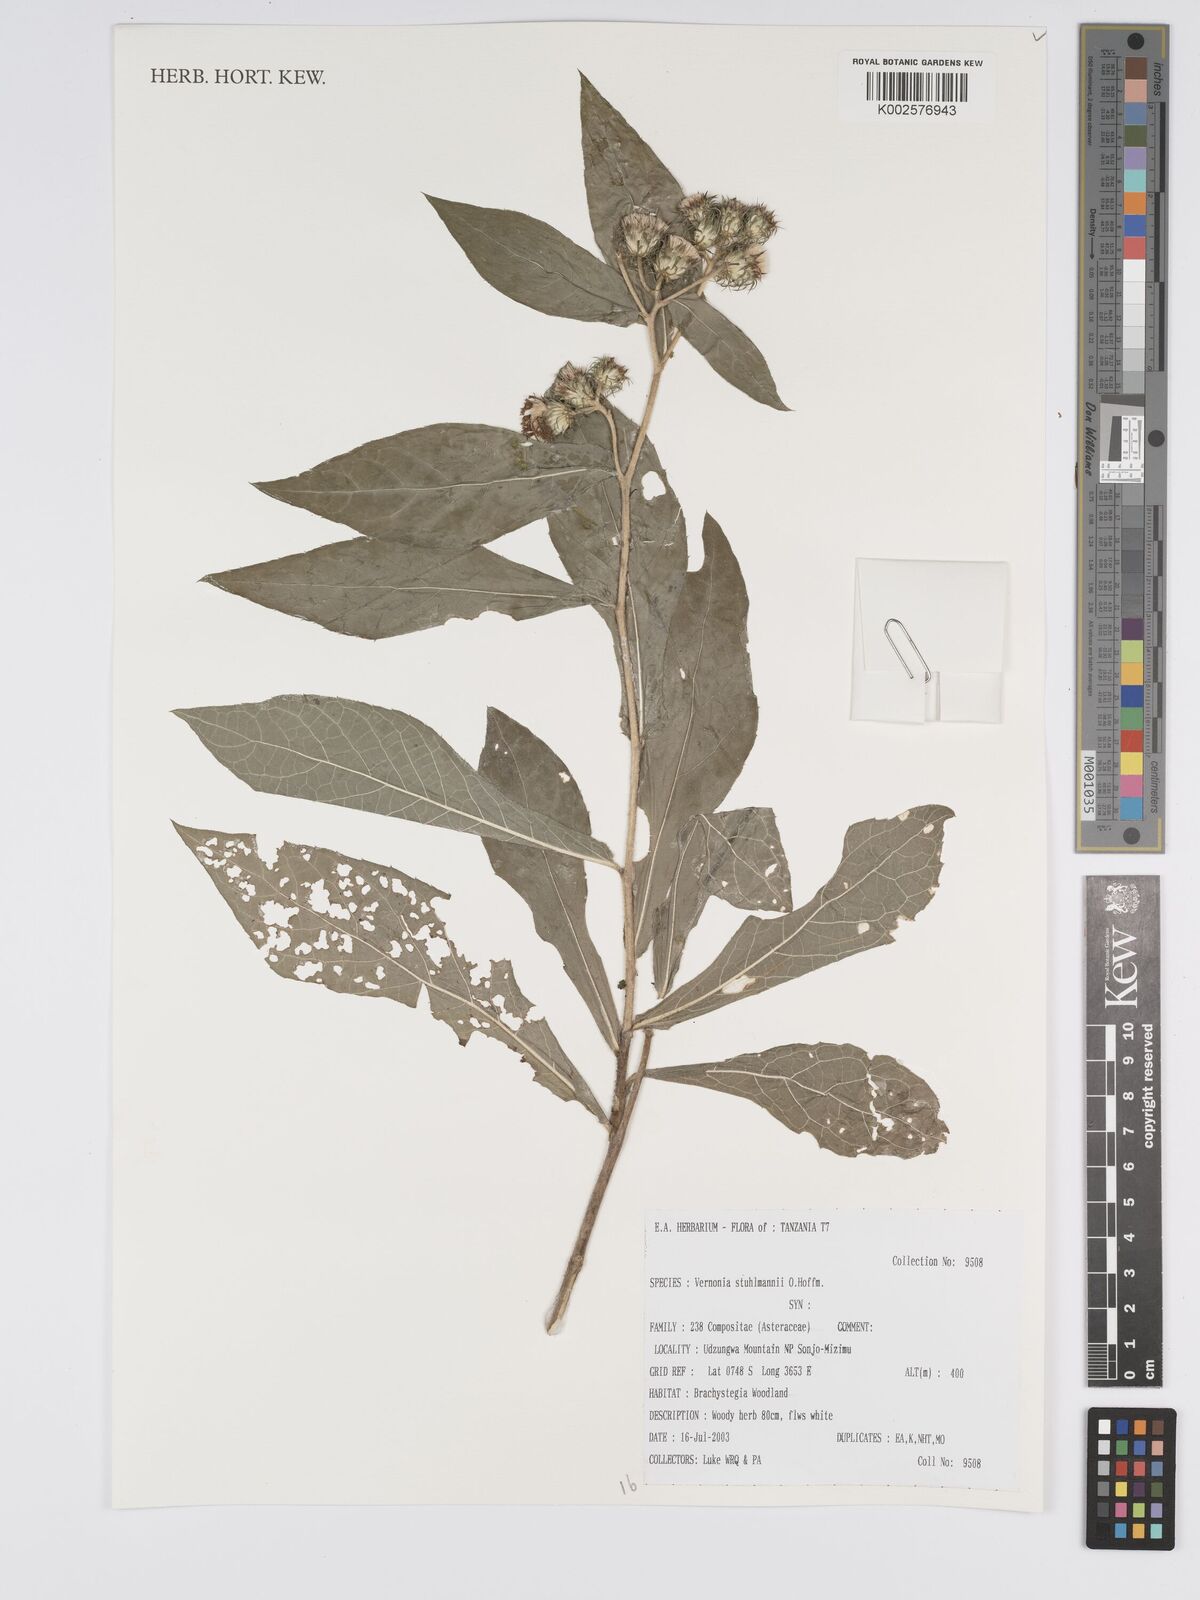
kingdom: Plantae
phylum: Tracheophyta
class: Magnoliopsida
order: Asterales
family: Asteraceae
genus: Vernonia
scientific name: Vernonia stuhlmannii
